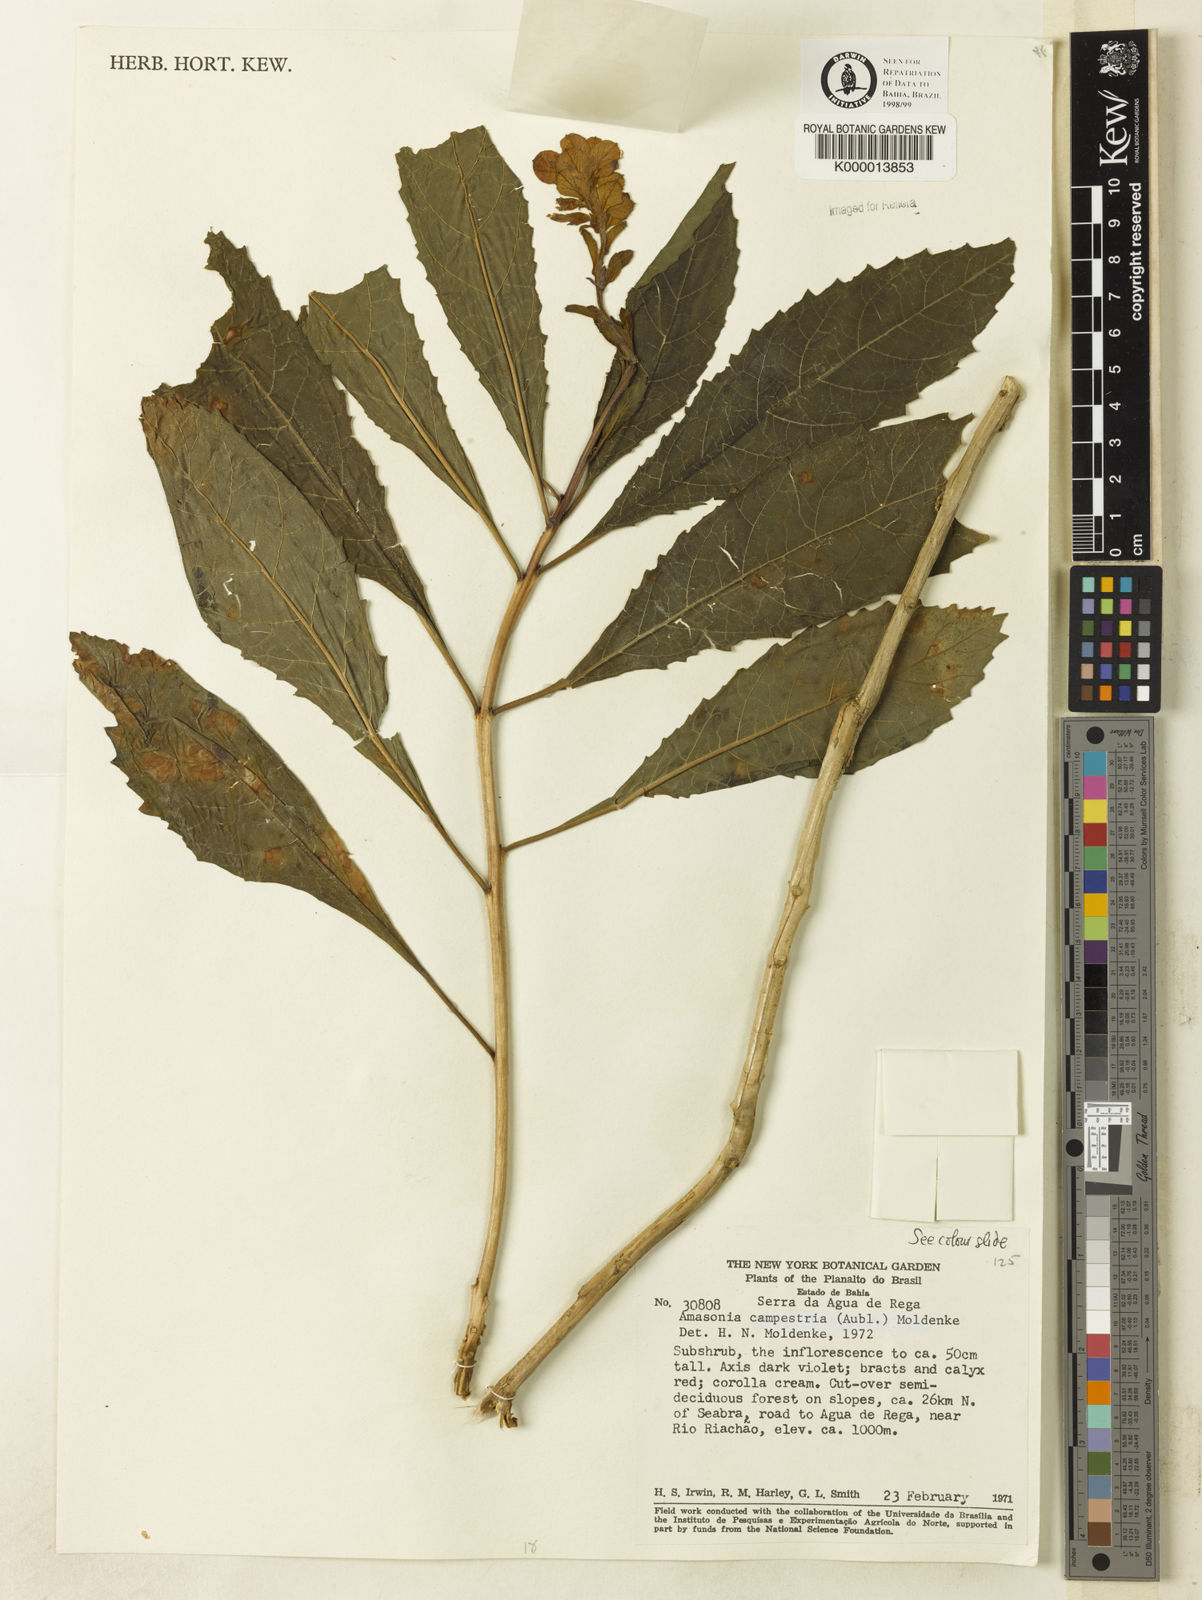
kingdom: Plantae
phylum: Tracheophyta
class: Magnoliopsida
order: Lamiales
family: Lamiaceae
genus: Amasonia
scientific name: Amasonia campestris
